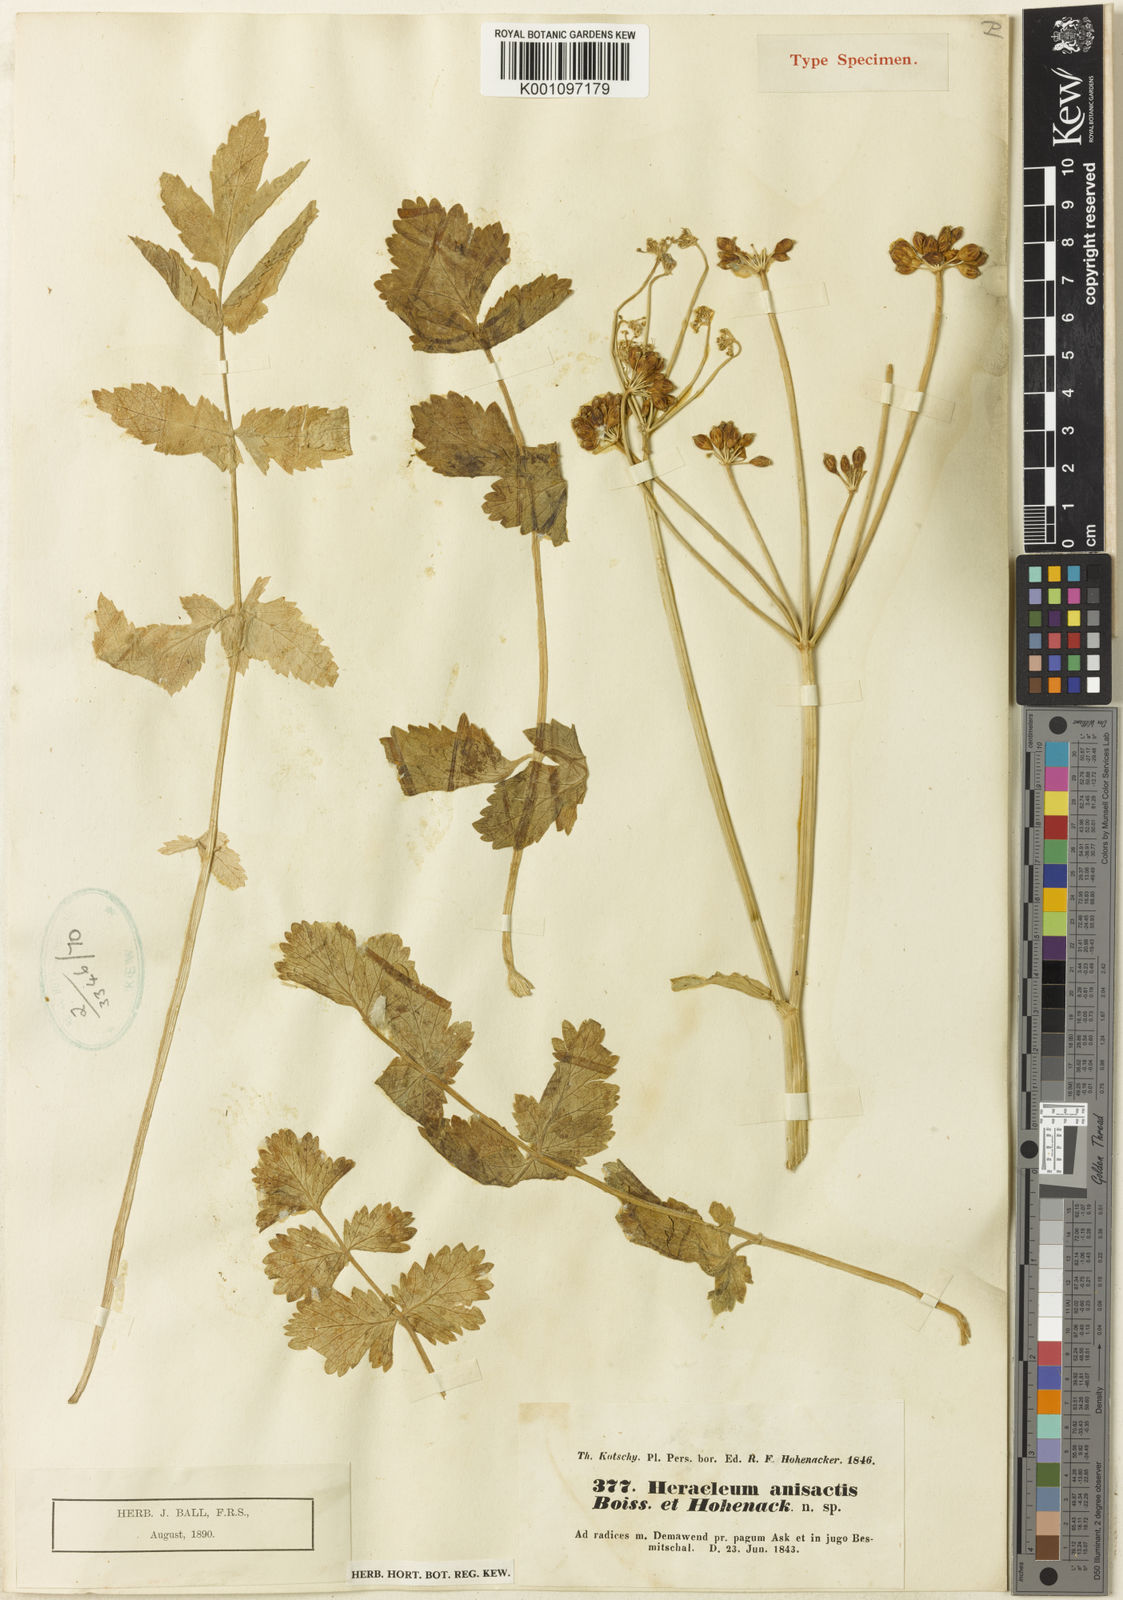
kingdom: Plantae
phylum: Tracheophyta
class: Magnoliopsida
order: Apiales
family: Apiaceae
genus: Heracleum
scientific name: Heracleum anisactis
